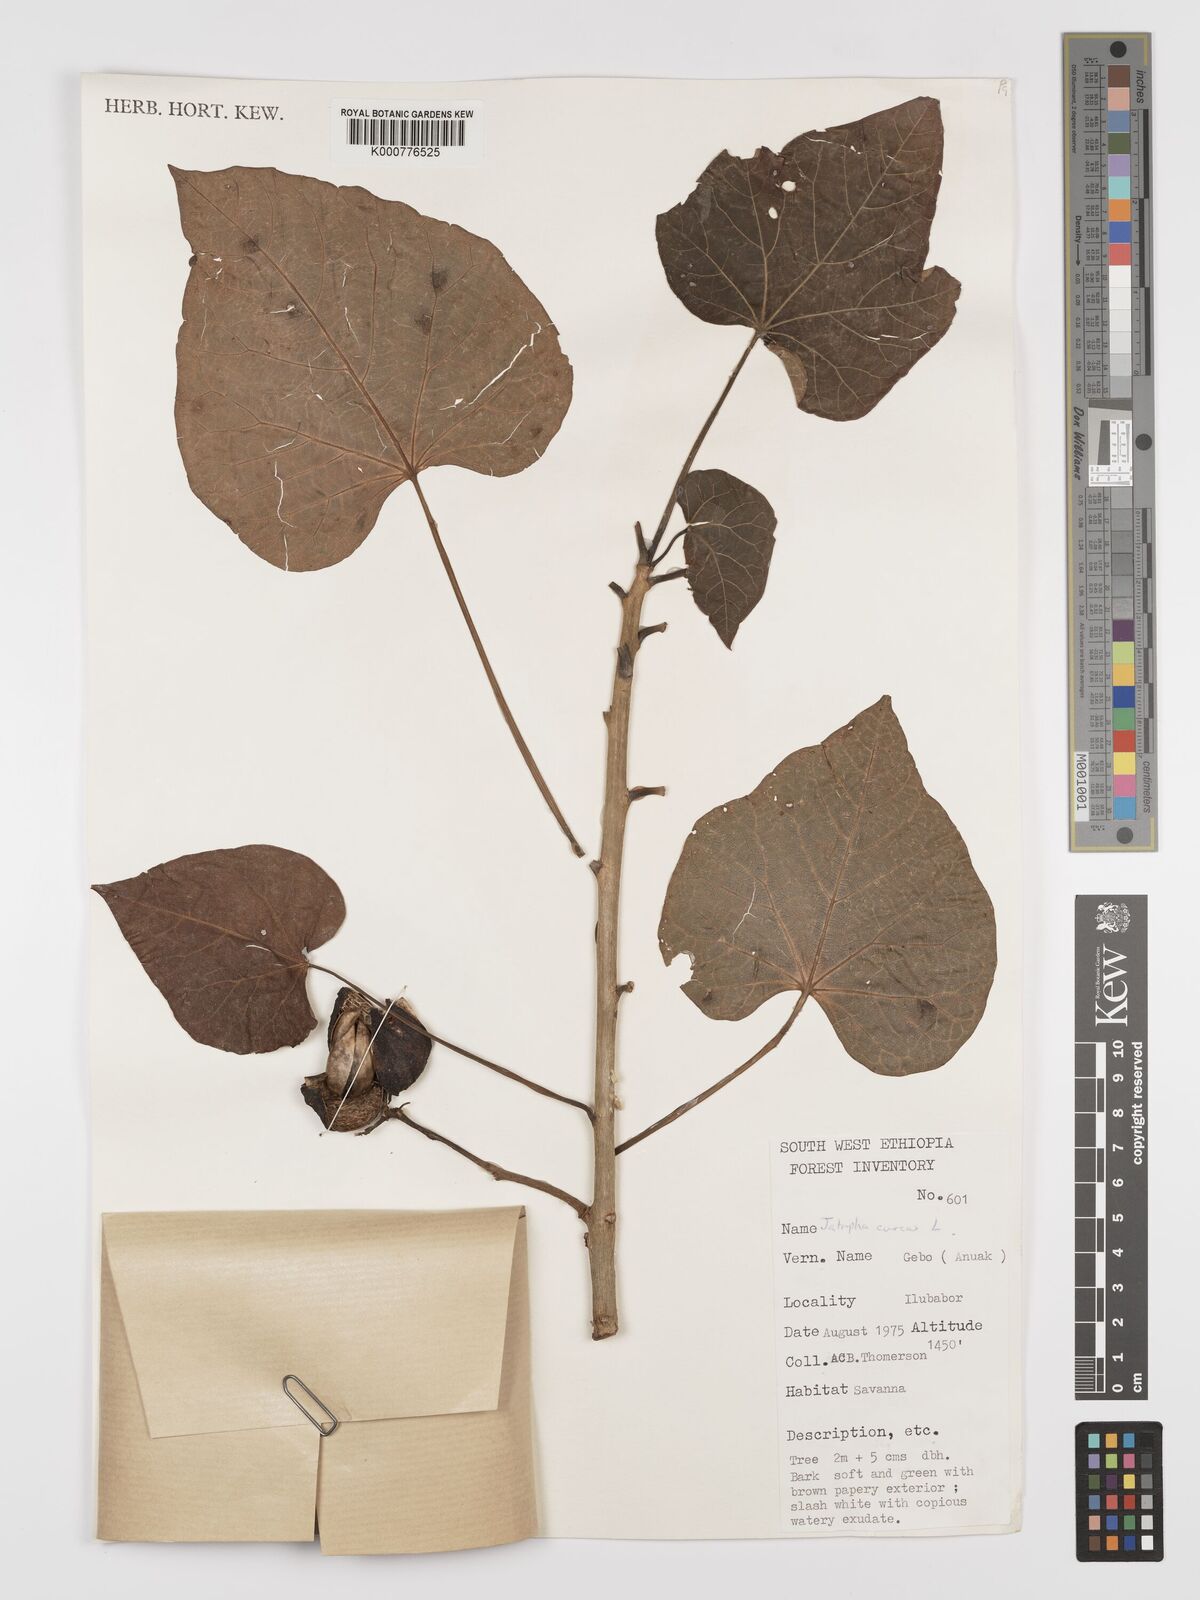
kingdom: Plantae
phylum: Tracheophyta
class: Magnoliopsida
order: Malpighiales
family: Euphorbiaceae
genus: Jatropha
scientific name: Jatropha curcas
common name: Barbados nut
